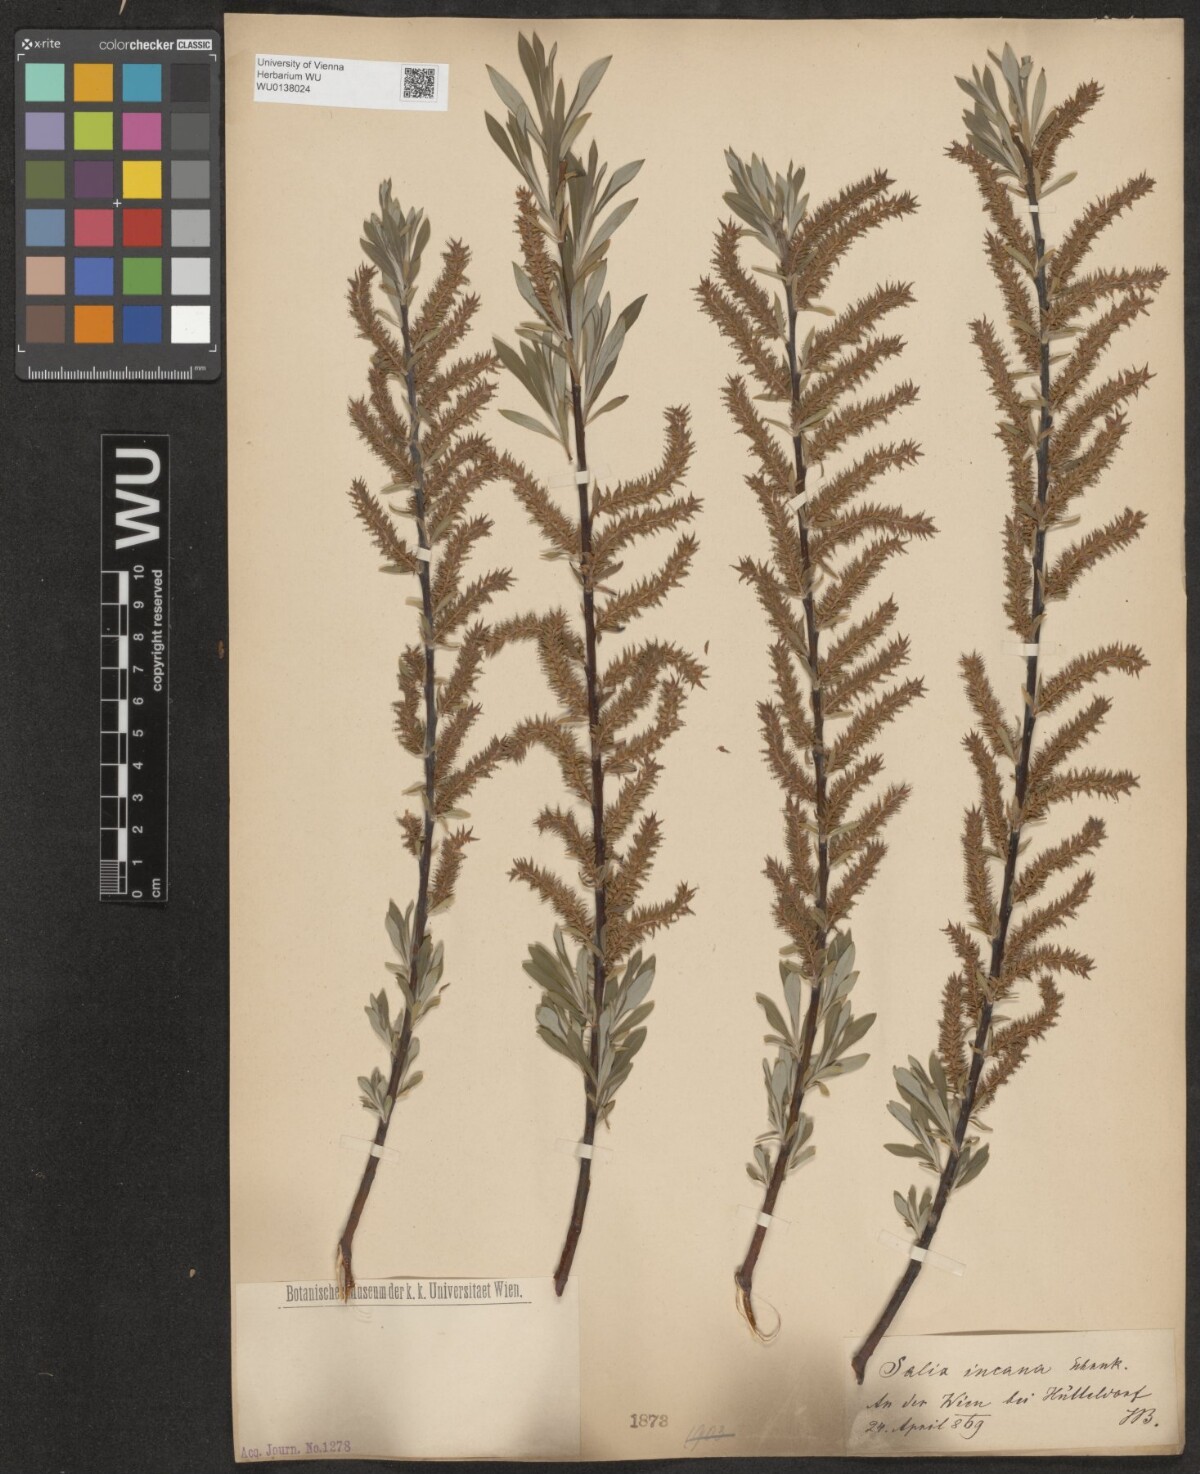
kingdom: Plantae
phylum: Tracheophyta
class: Magnoliopsida
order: Malpighiales
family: Salicaceae
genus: Salix
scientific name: Salix eleagnos
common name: Elaeagnus willow
